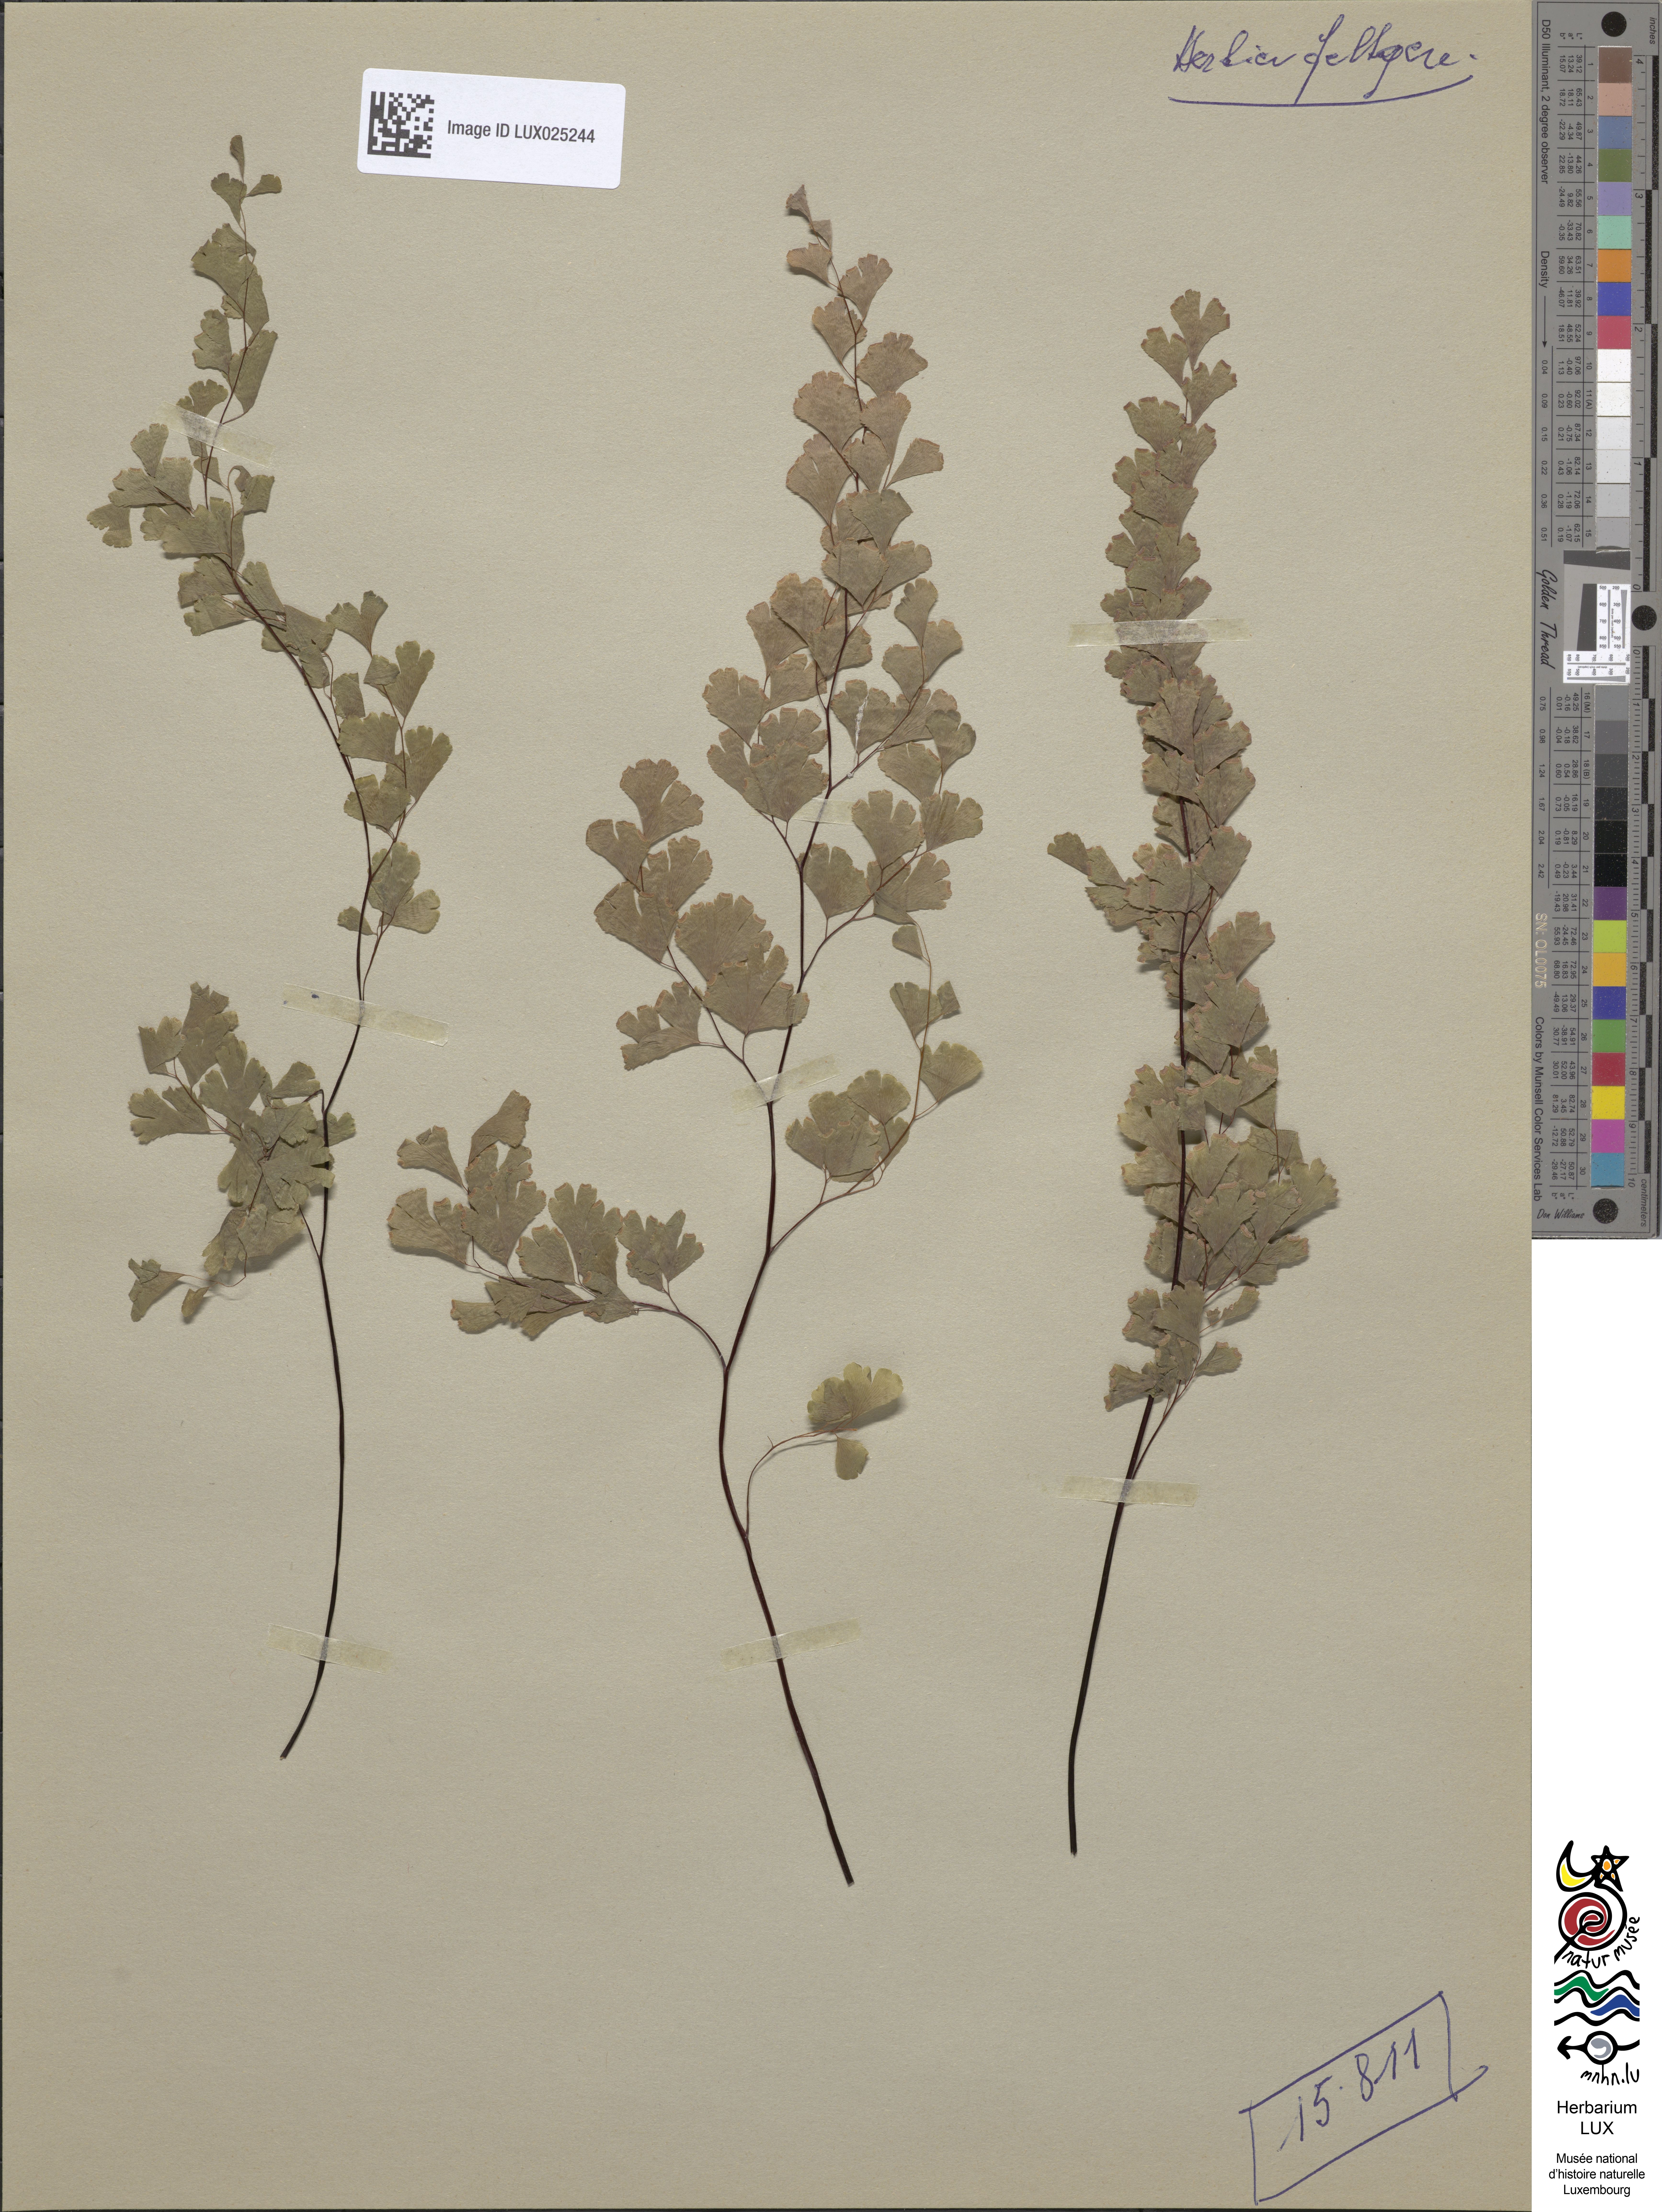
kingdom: Plantae
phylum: Tracheophyta
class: Polypodiopsida
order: Polypodiales
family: Pteridaceae
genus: Adiantum
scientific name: Adiantum capillus-veneris
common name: Maidenhair fern
